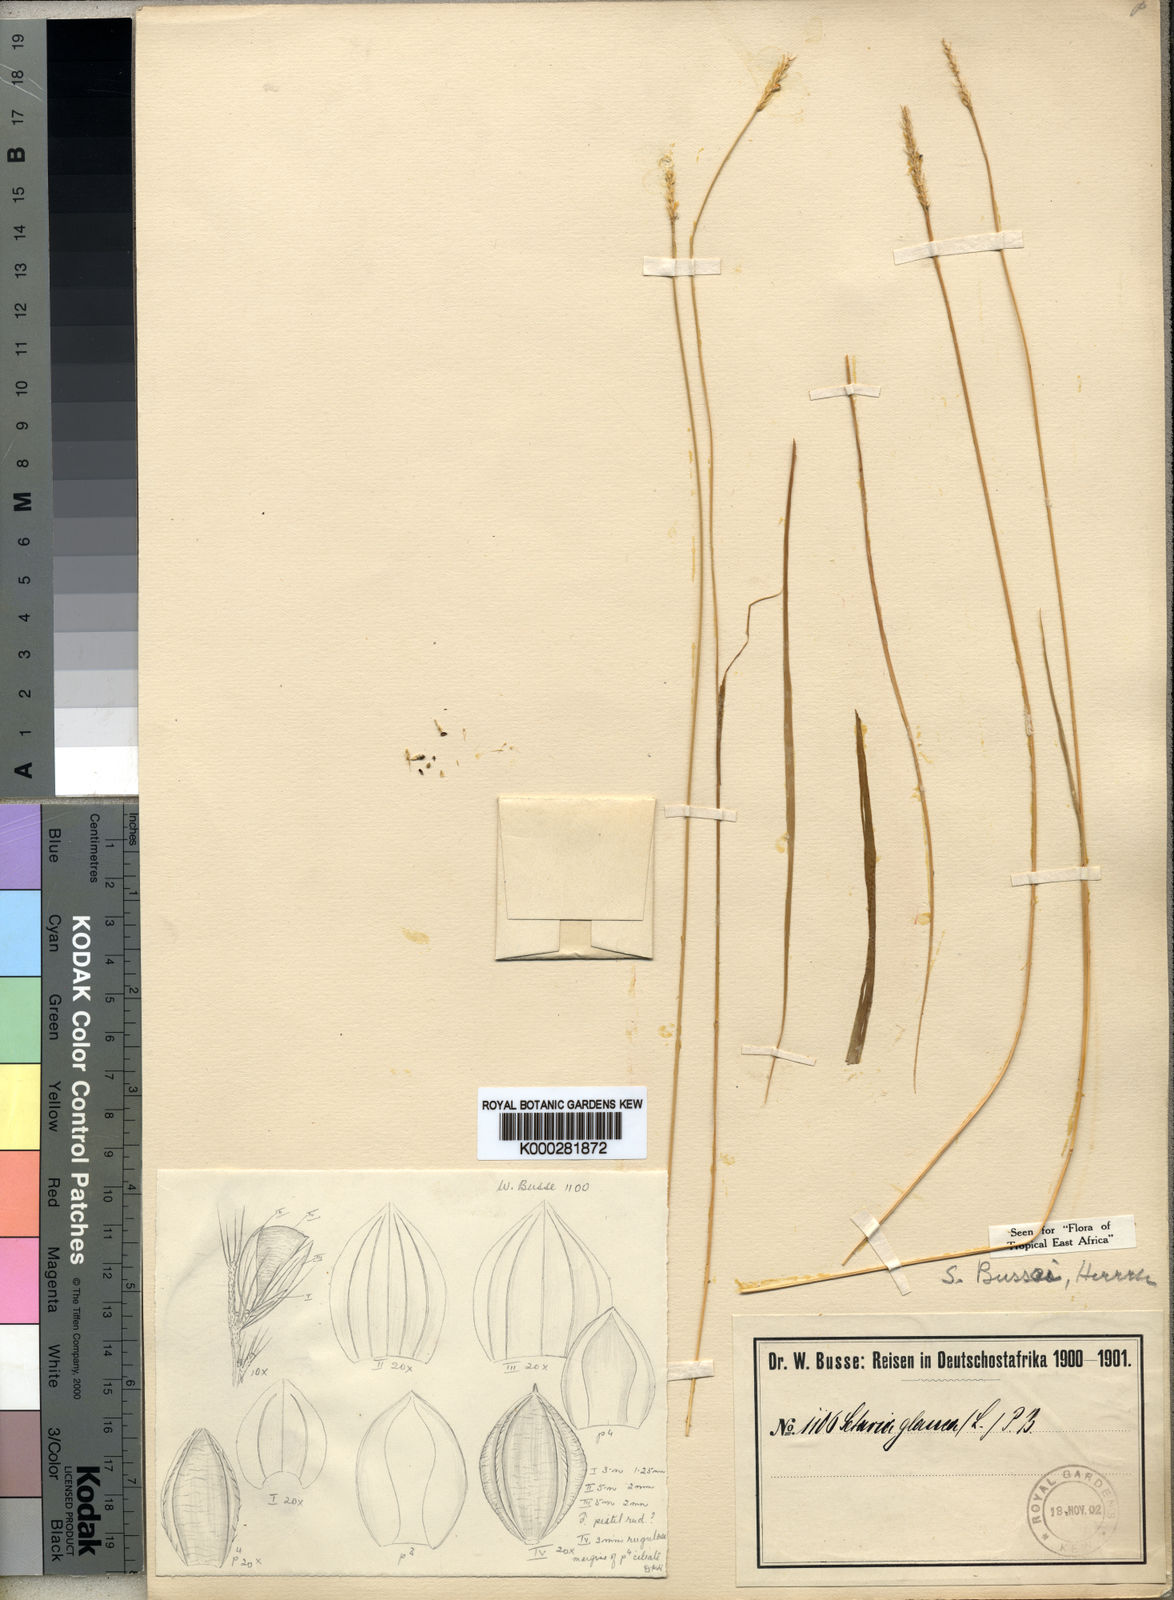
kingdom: Plantae
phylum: Tracheophyta
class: Liliopsida
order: Poales
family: Poaceae
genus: Setaria
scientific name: Setaria sphacelata
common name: African bristlegrass
